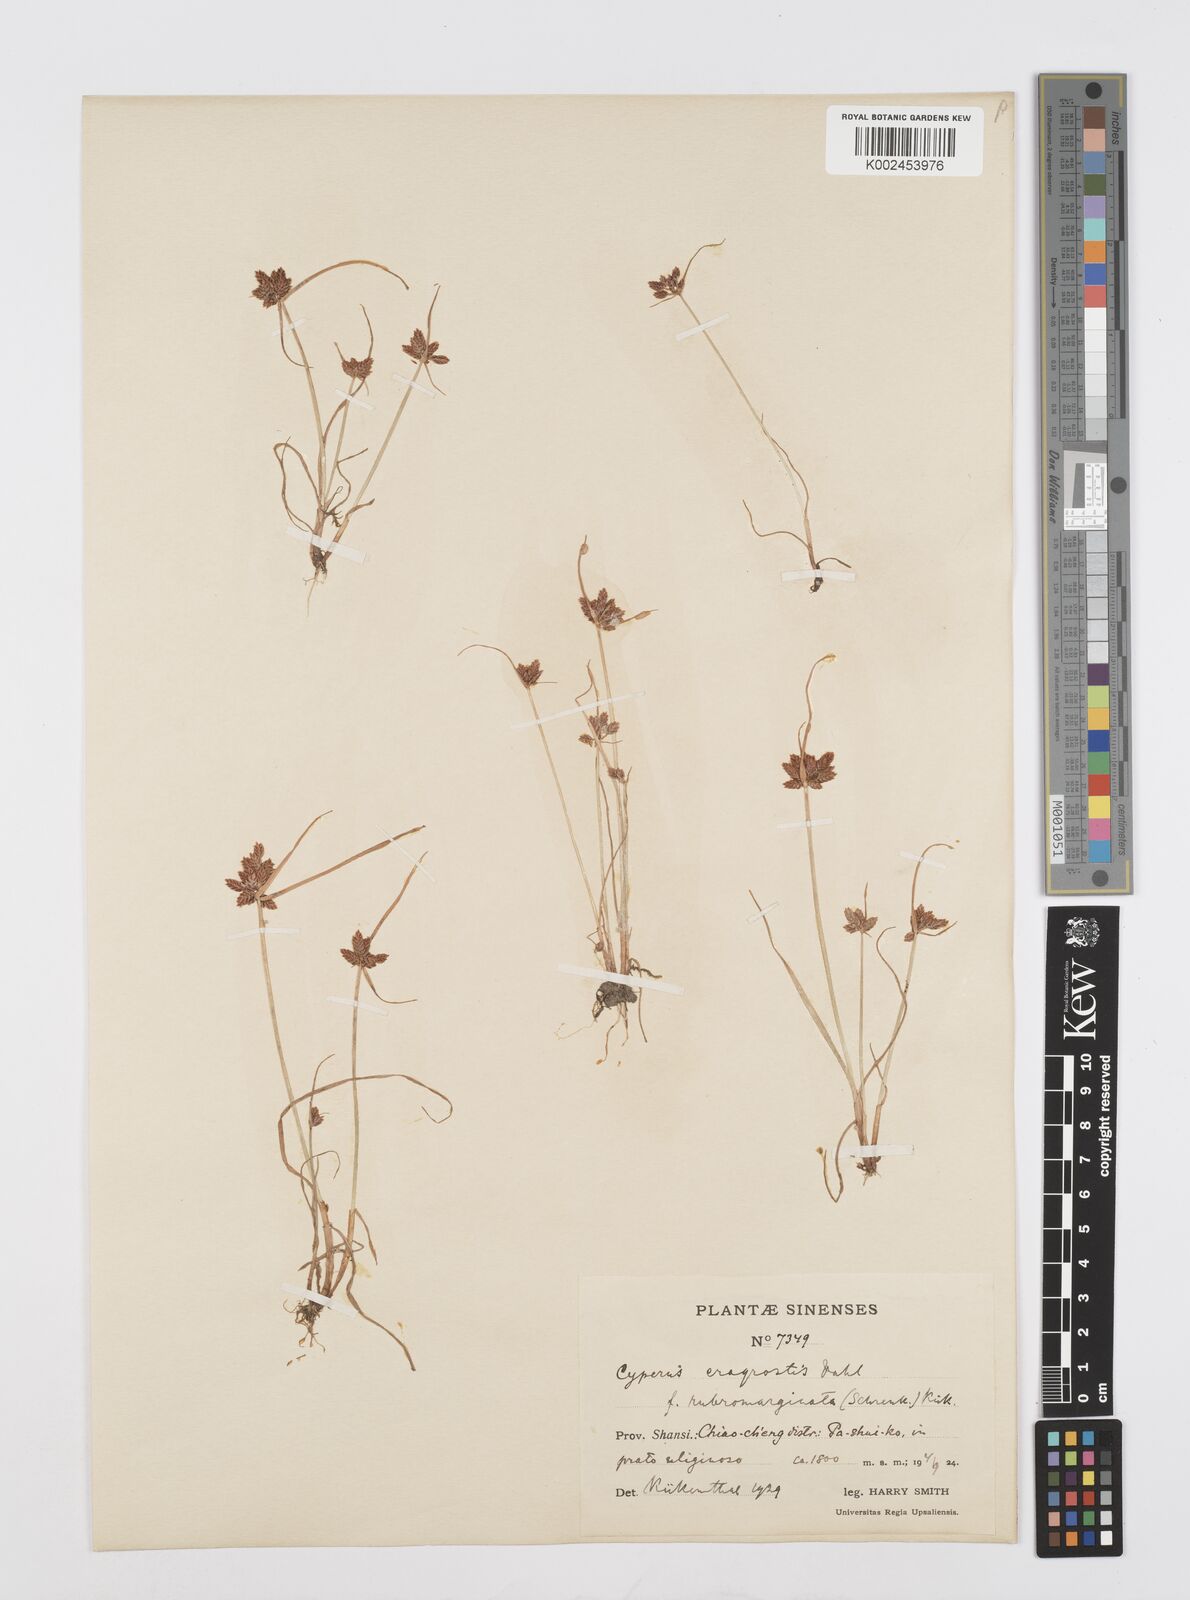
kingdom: Plantae
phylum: Tracheophyta
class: Liliopsida
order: Poales
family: Cyperaceae
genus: Cyperus
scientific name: Cyperus sanguinolentus
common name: Purpleglume flatsedge
